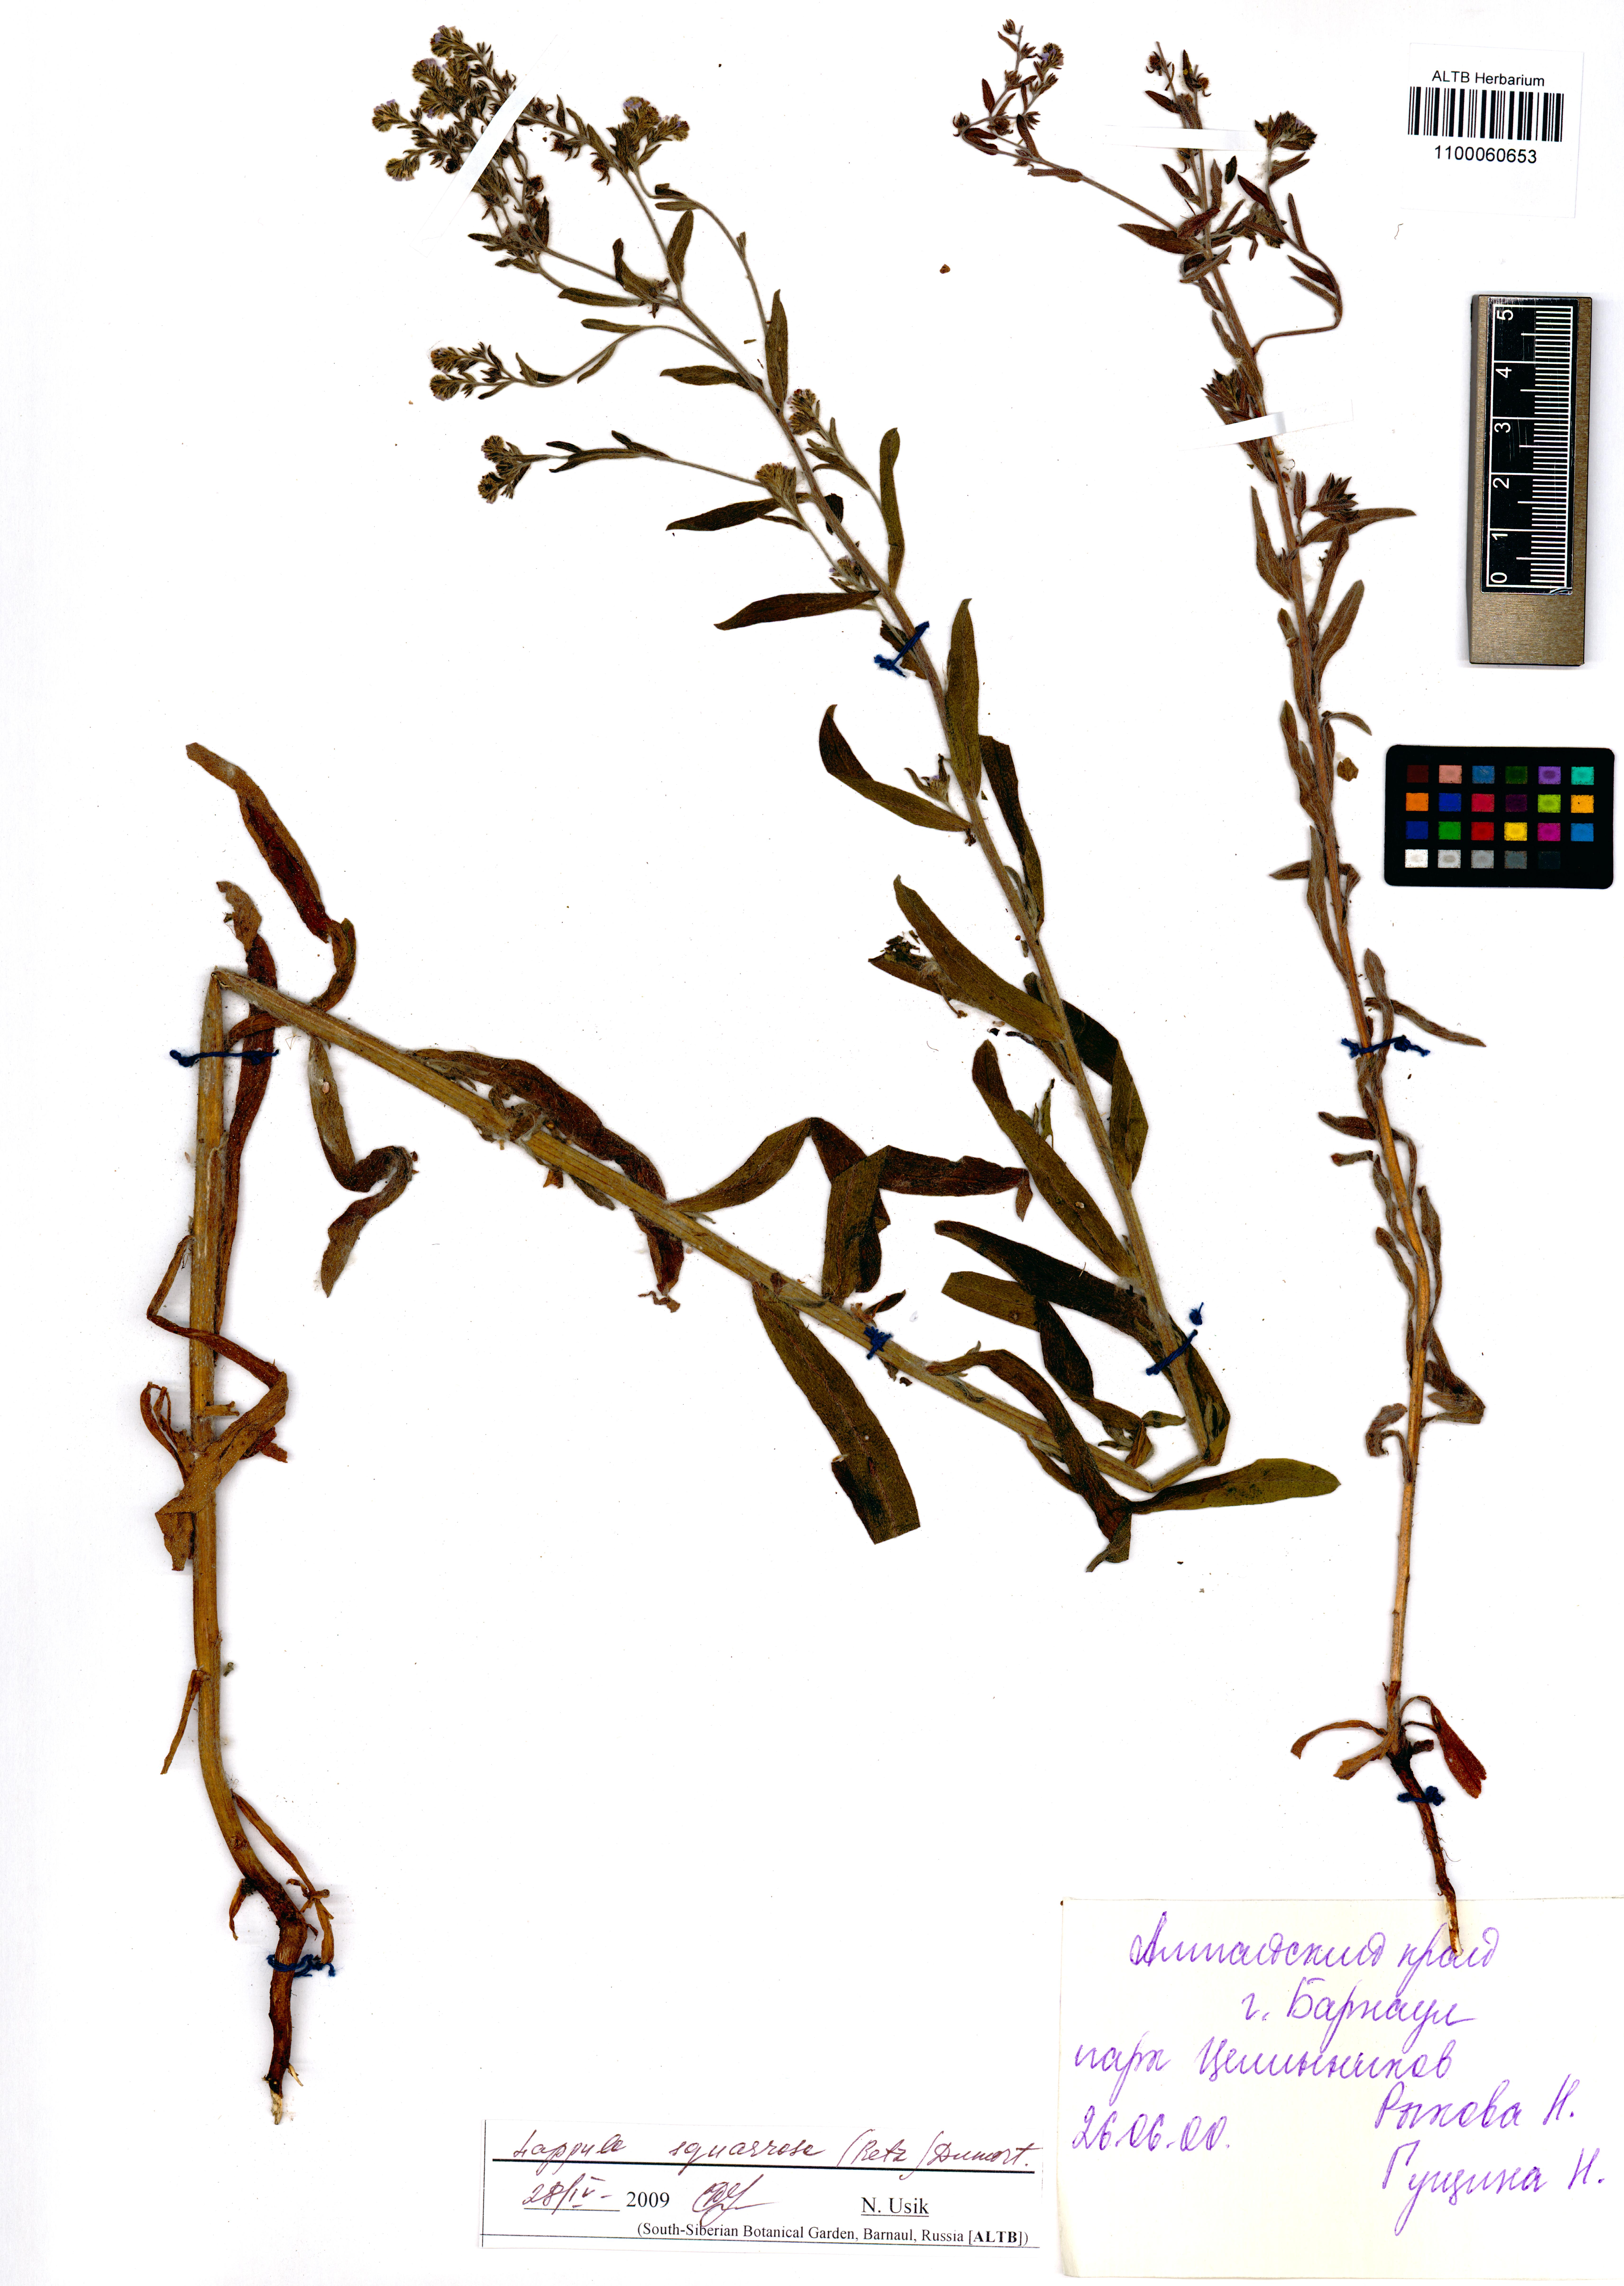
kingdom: Plantae
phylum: Tracheophyta
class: Magnoliopsida
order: Boraginales
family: Boraginaceae
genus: Lappula
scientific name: Lappula squarrosa
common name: European stickseed
